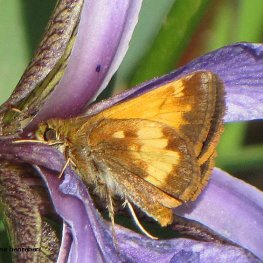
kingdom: Animalia
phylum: Arthropoda
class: Insecta
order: Lepidoptera
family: Hesperiidae
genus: Lon
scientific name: Lon hobomok
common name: Hobomok Skipper
